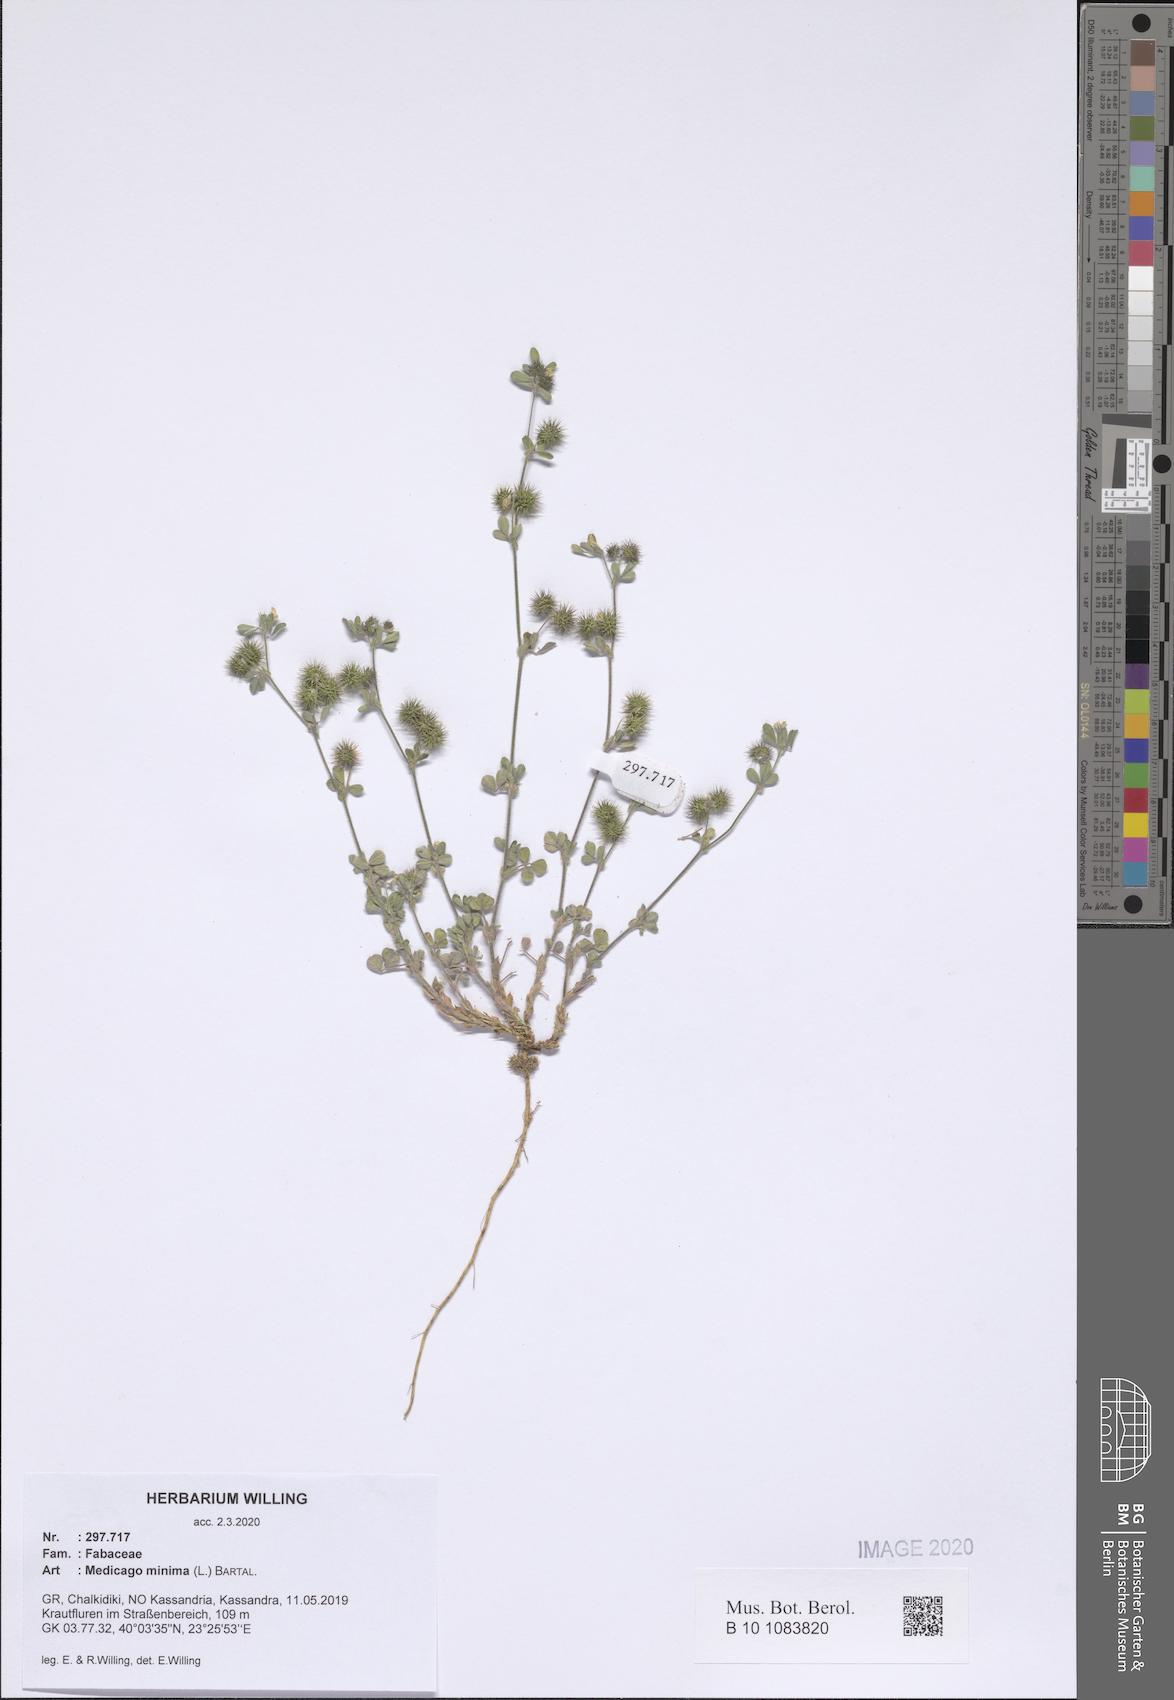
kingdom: Plantae
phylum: Tracheophyta
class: Magnoliopsida
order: Fabales
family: Fabaceae
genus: Medicago
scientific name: Medicago minima
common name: Little bur-clover
